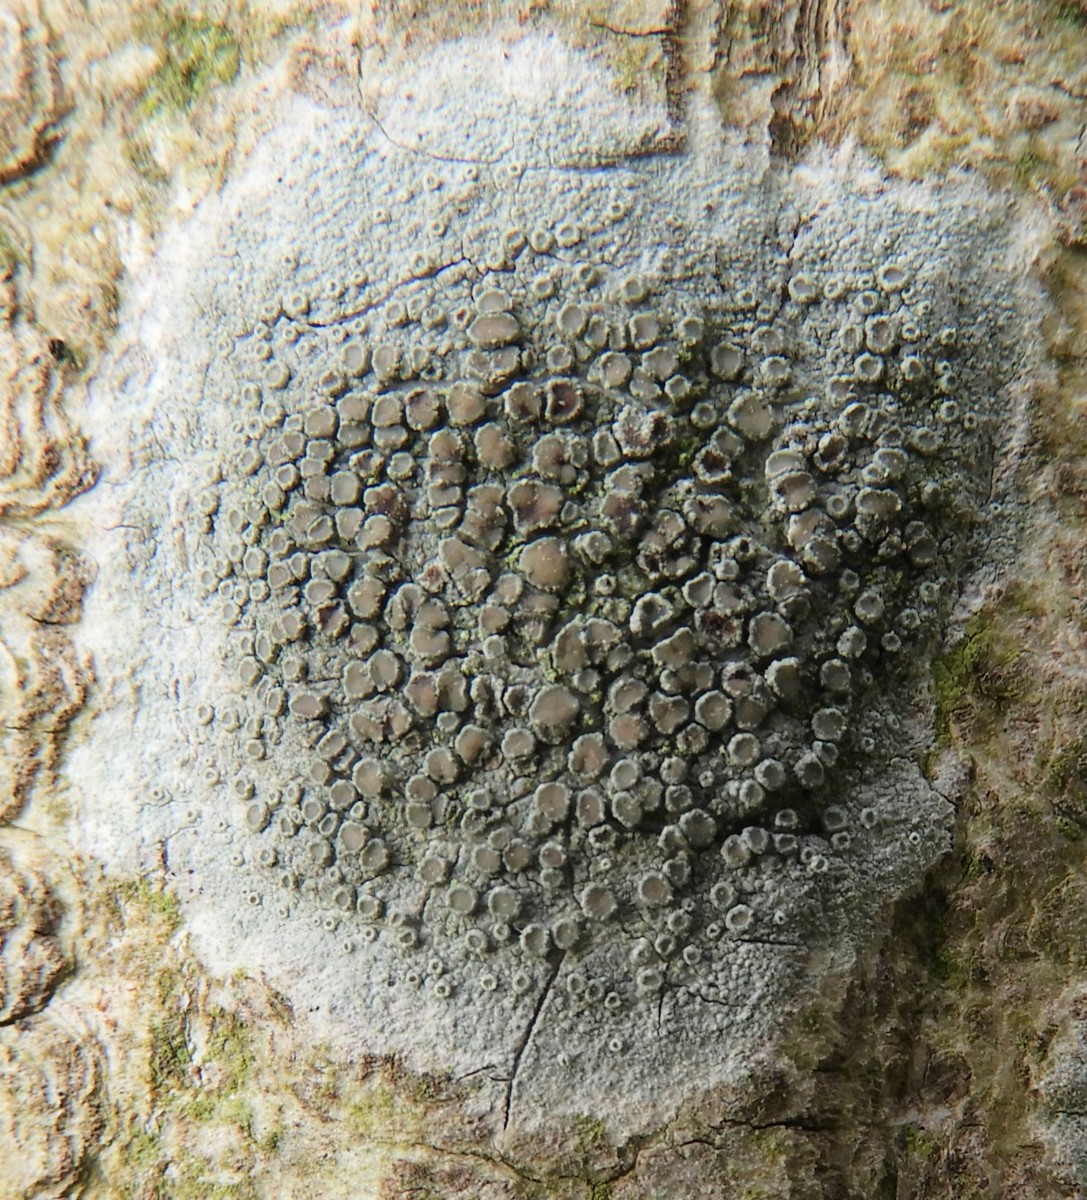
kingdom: Fungi
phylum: Ascomycota
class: Lecanoromycetes
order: Lecanorales
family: Lecanoraceae
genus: Lecanora
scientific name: Lecanora chlarotera
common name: brun kantskivelav
